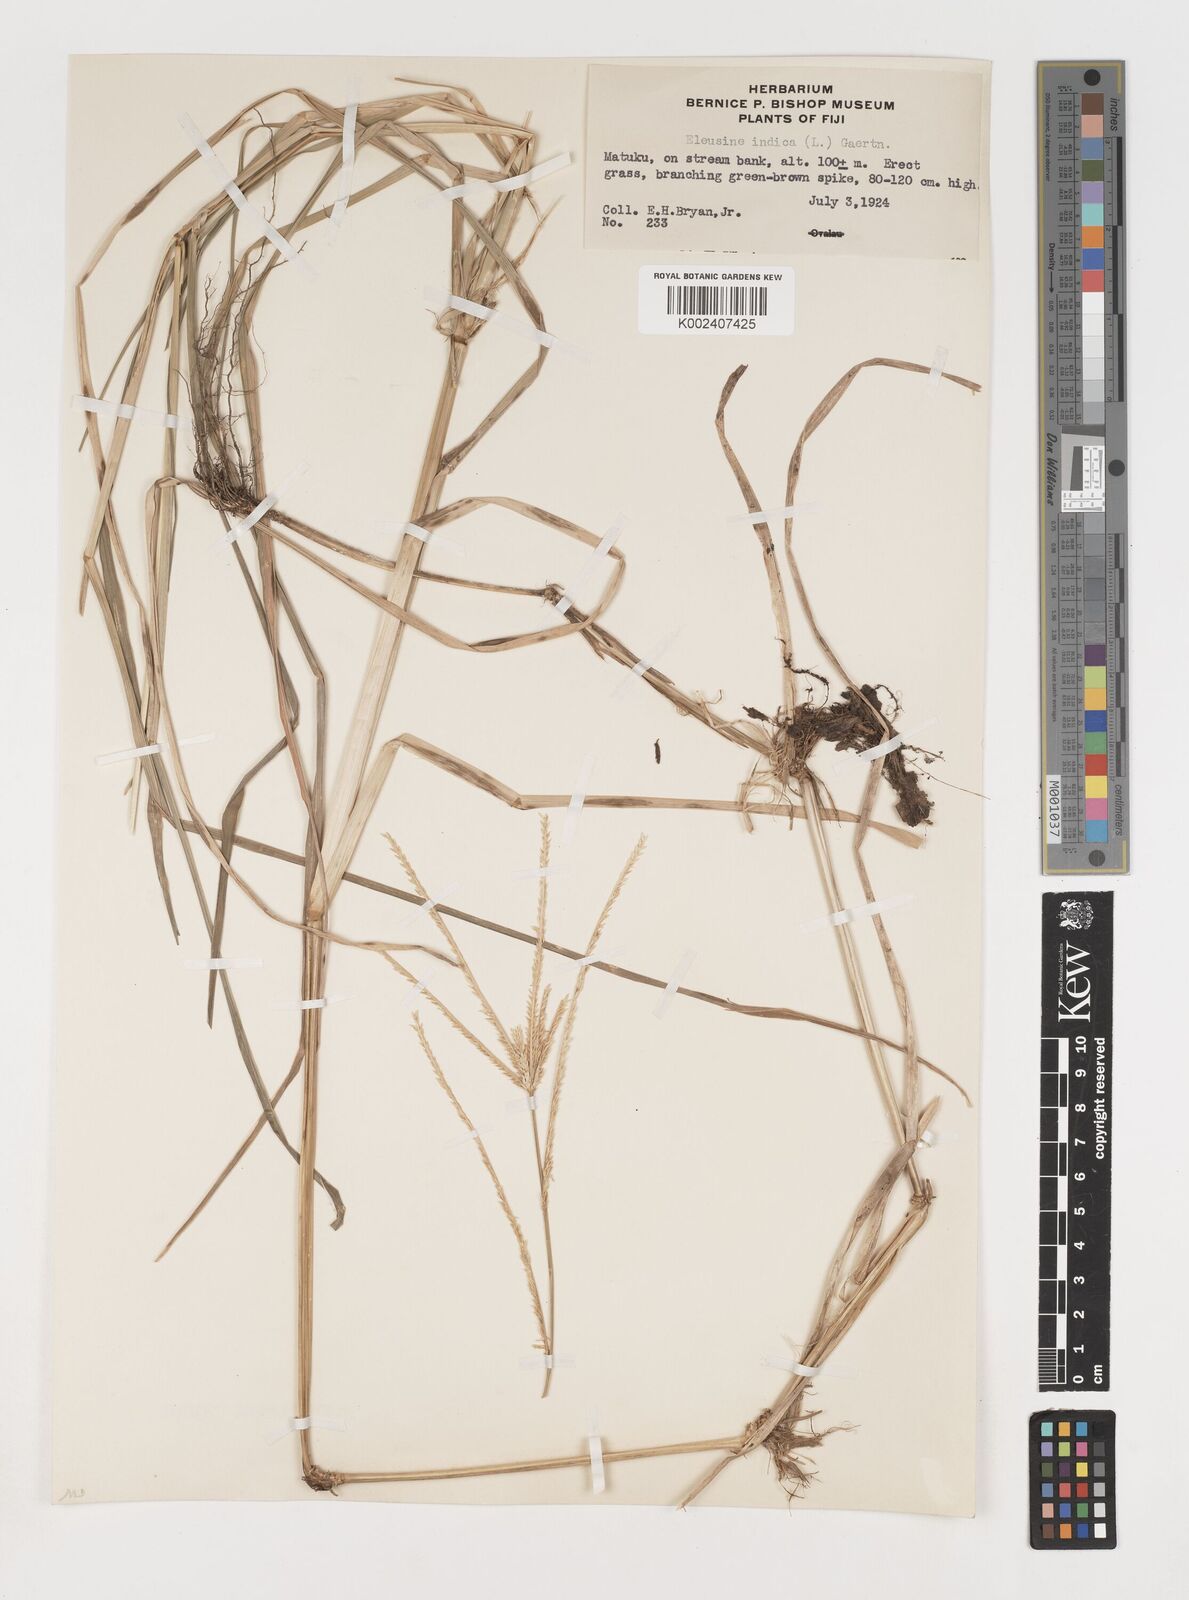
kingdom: Plantae
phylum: Tracheophyta
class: Liliopsida
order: Poales
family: Poaceae
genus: Eleusine
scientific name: Eleusine indica
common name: Yard-grass
